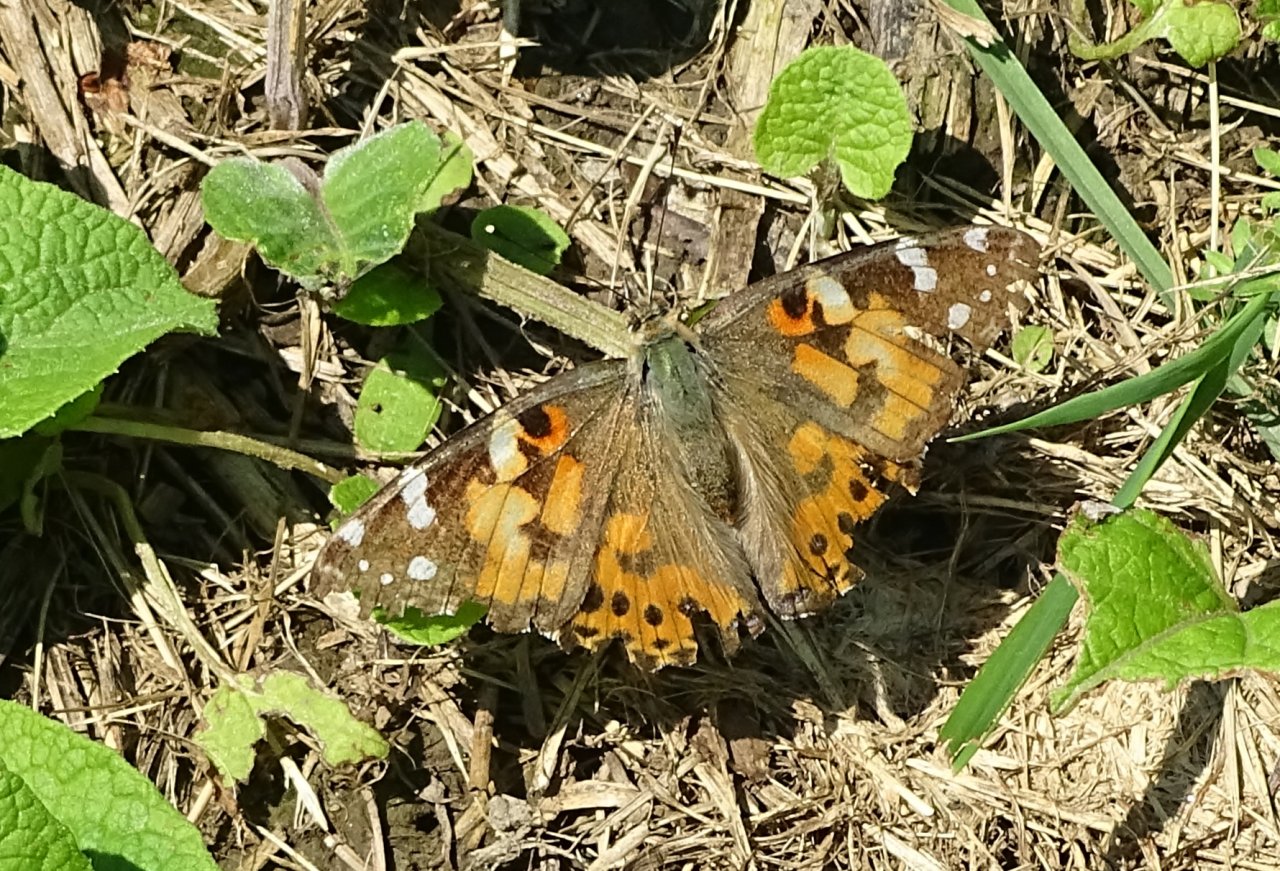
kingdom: Animalia
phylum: Arthropoda
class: Insecta
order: Lepidoptera
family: Nymphalidae
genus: Vanessa
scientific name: Vanessa cardui
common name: Painted Lady
